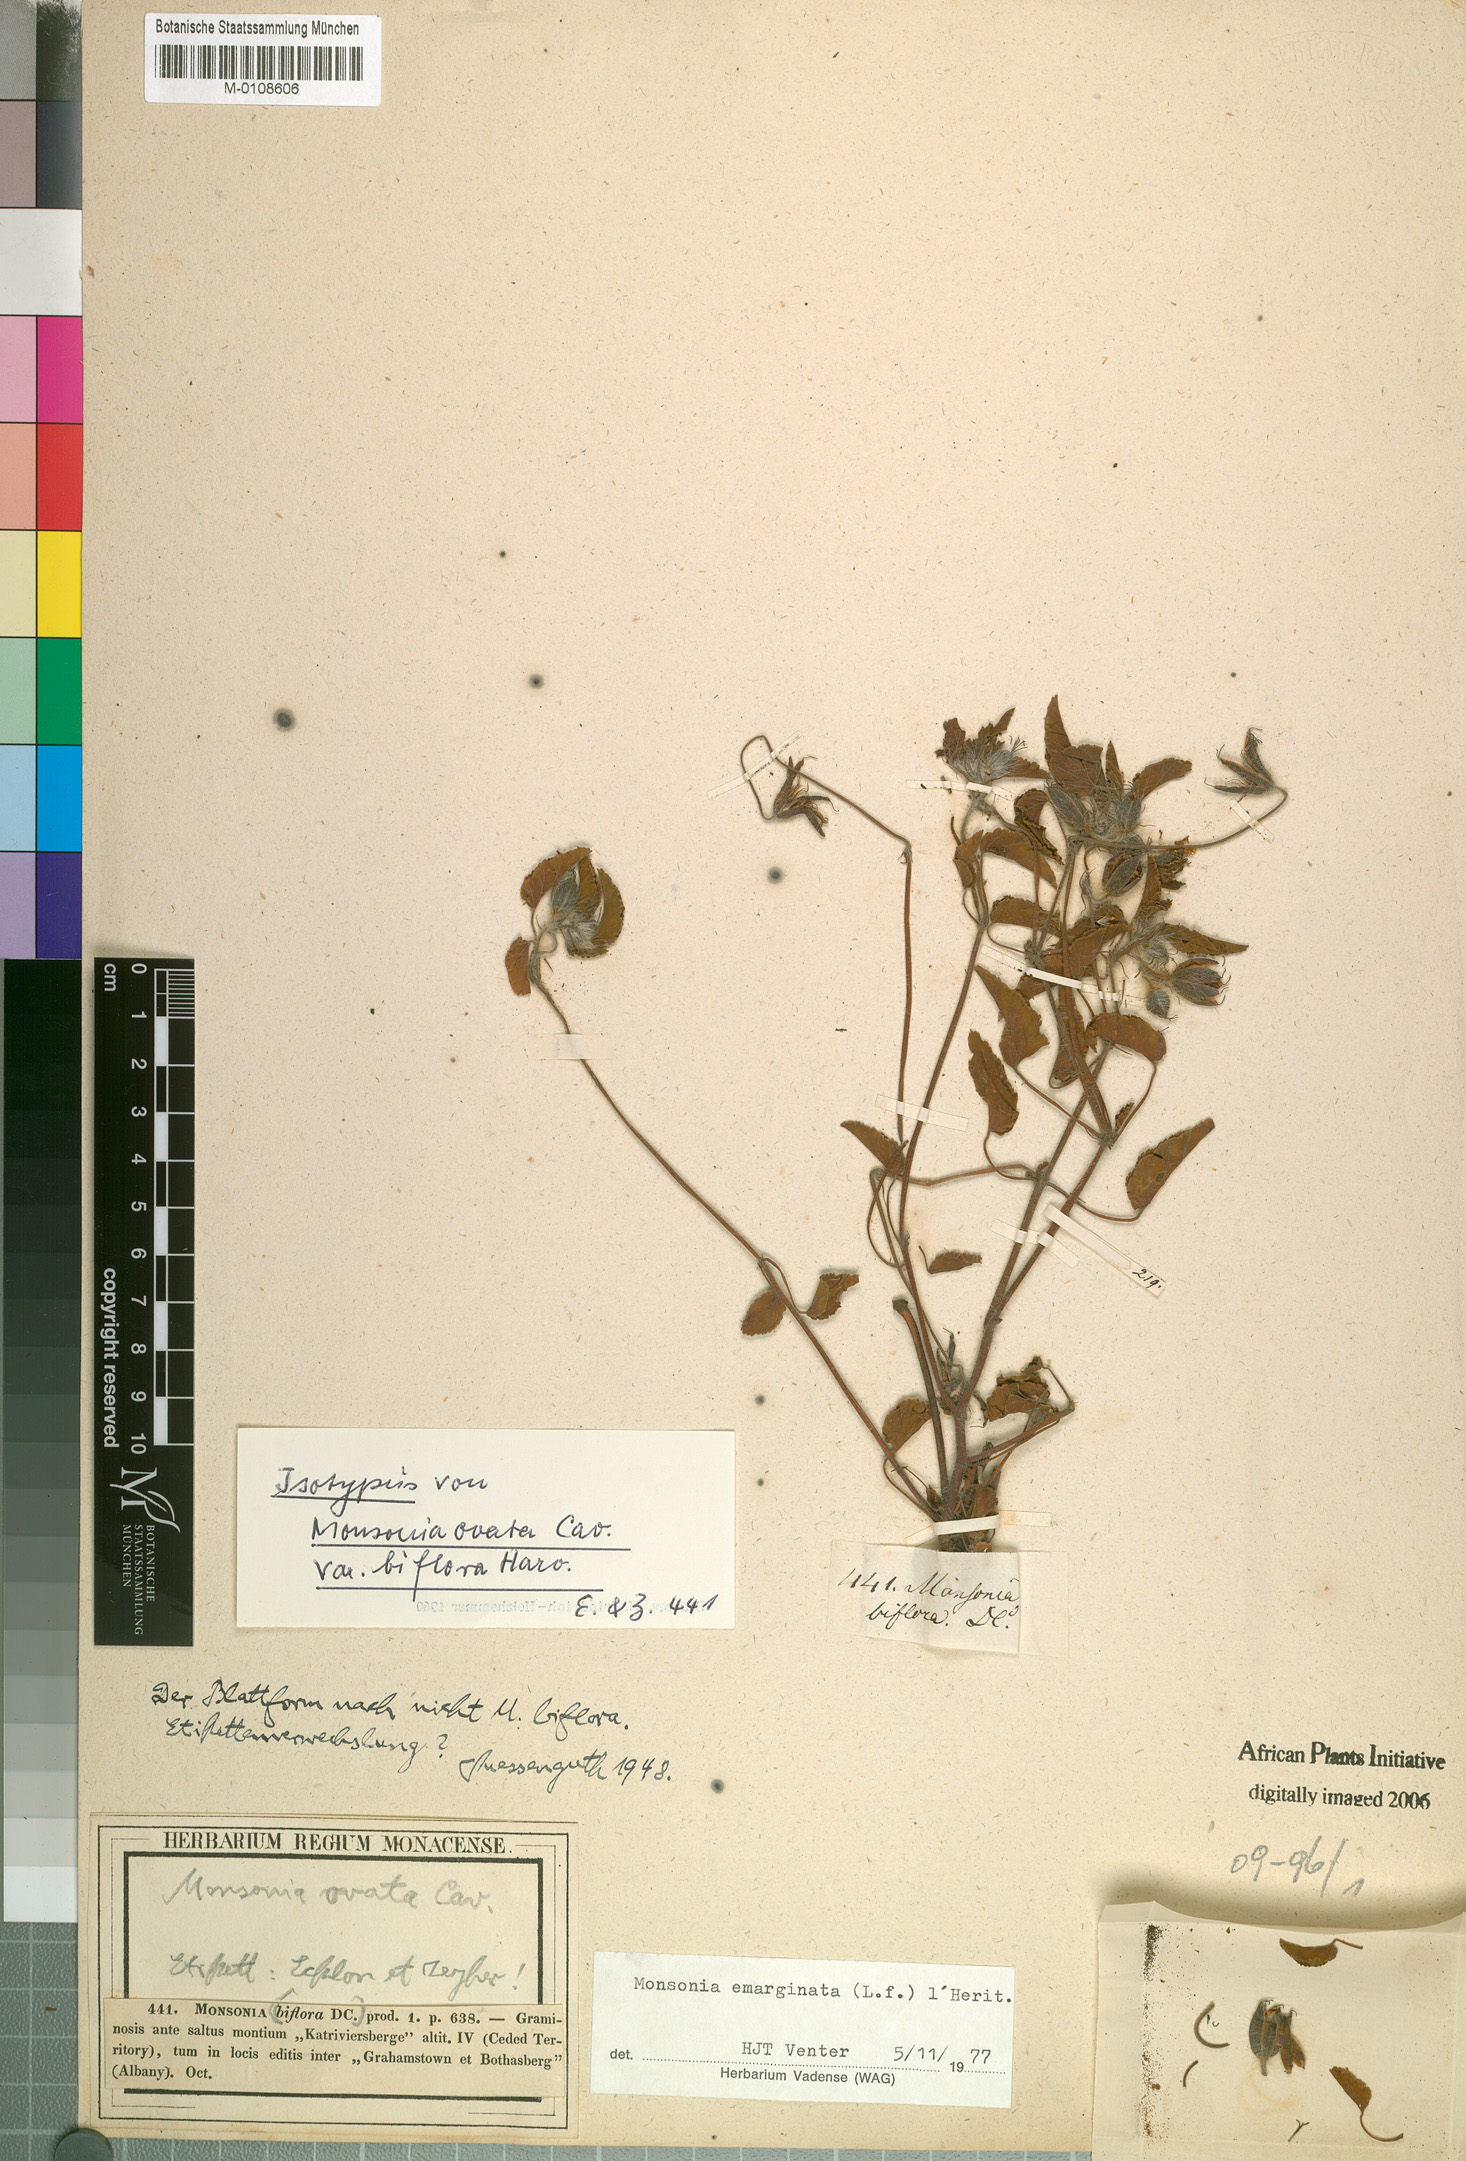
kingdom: Plantae
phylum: Tracheophyta
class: Magnoliopsida
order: Geraniales
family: Geraniaceae
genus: Monsonia
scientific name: Monsonia emarginata
